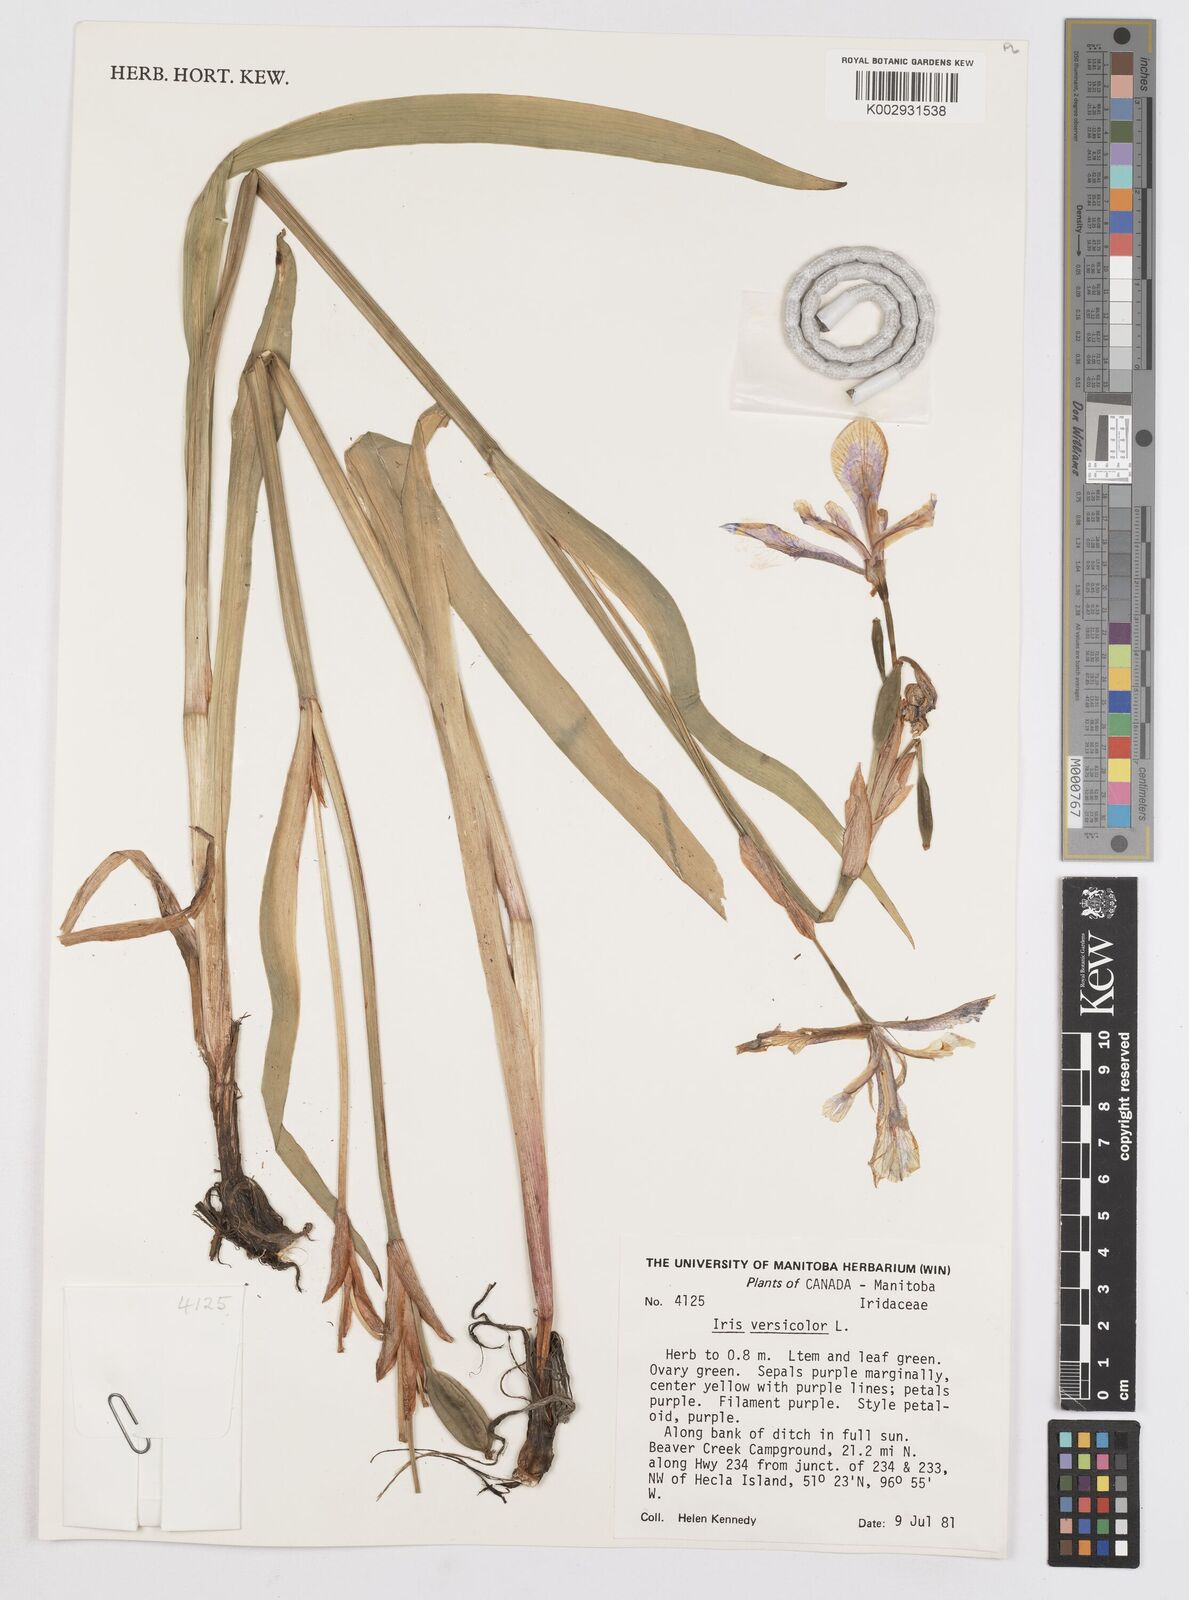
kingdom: Plantae
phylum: Tracheophyta
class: Liliopsida
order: Asparagales
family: Iridaceae
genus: Iris
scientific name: Iris versicolor
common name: Purple iris
